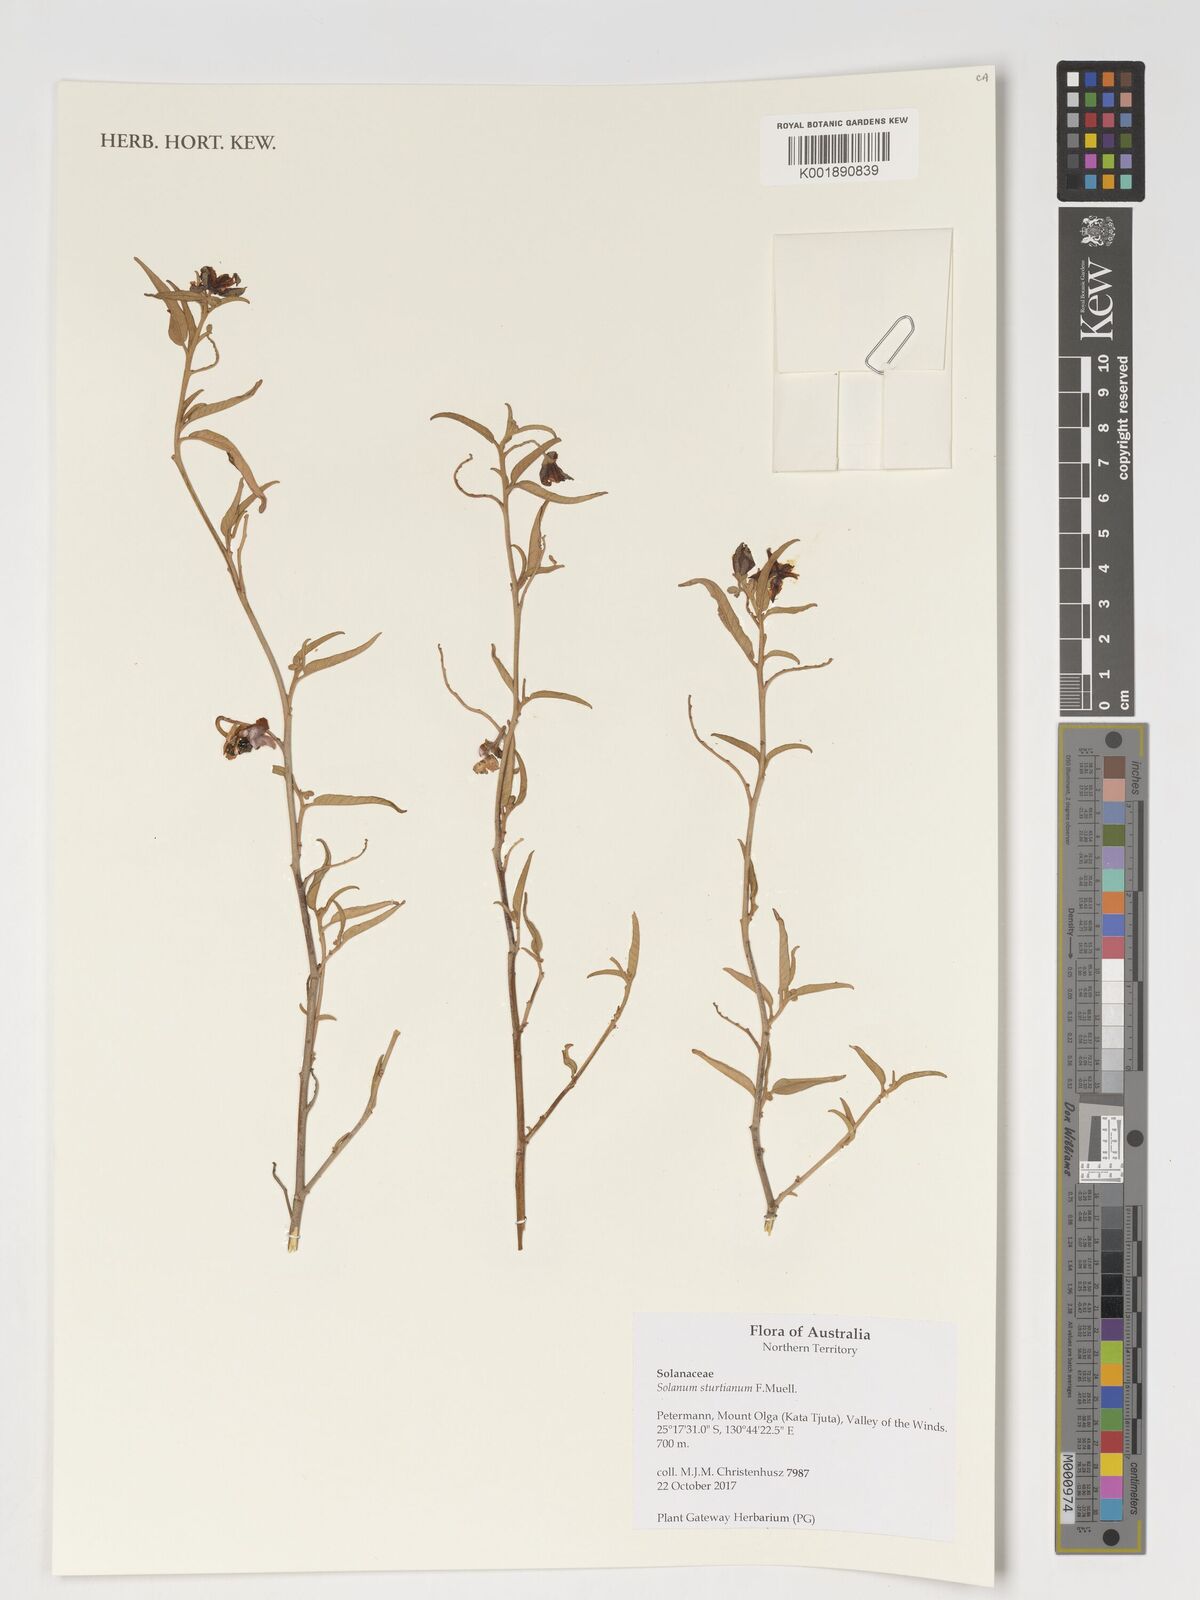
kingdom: Plantae
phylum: Tracheophyta
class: Magnoliopsida
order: Solanales
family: Solanaceae
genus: Solanum
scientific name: Solanum sturtianum
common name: Thargomindah nightshade
